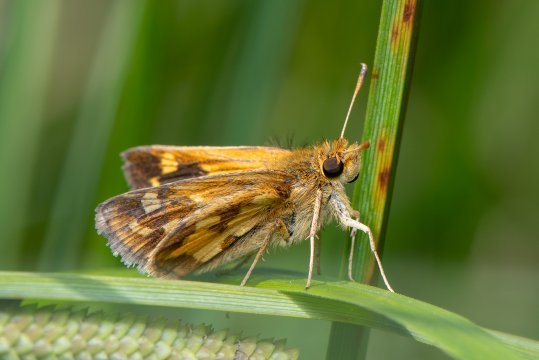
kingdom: Animalia
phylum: Arthropoda
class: Insecta
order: Lepidoptera
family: Hesperiidae
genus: Polites
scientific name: Polites coras
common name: Peck's Skipper
